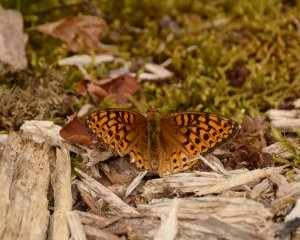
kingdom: Animalia
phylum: Arthropoda
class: Insecta
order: Lepidoptera
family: Nymphalidae
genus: Speyeria
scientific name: Speyeria atlantis
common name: Atlantis Fritillary
